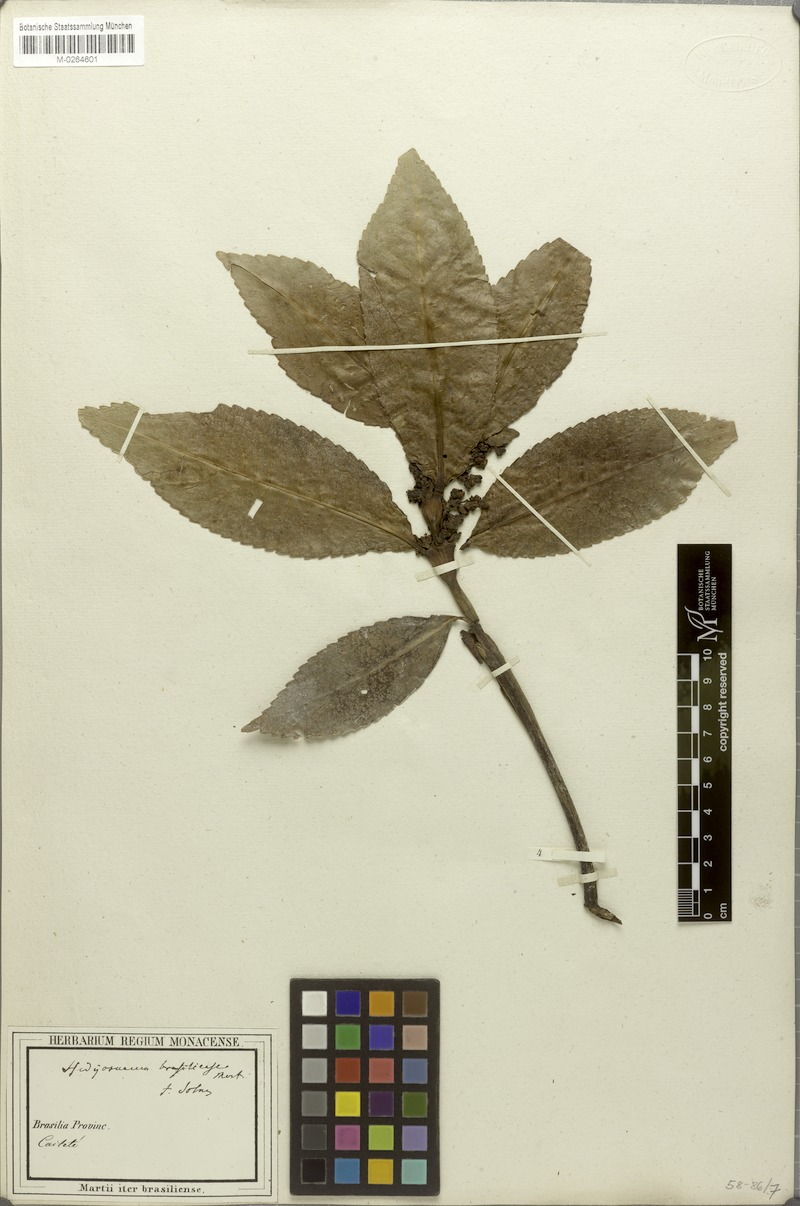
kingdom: Plantae
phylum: Tracheophyta
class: Magnoliopsida
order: Chloranthales
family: Chloranthaceae
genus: Hedyosmum
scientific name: Hedyosmum brasiliense
